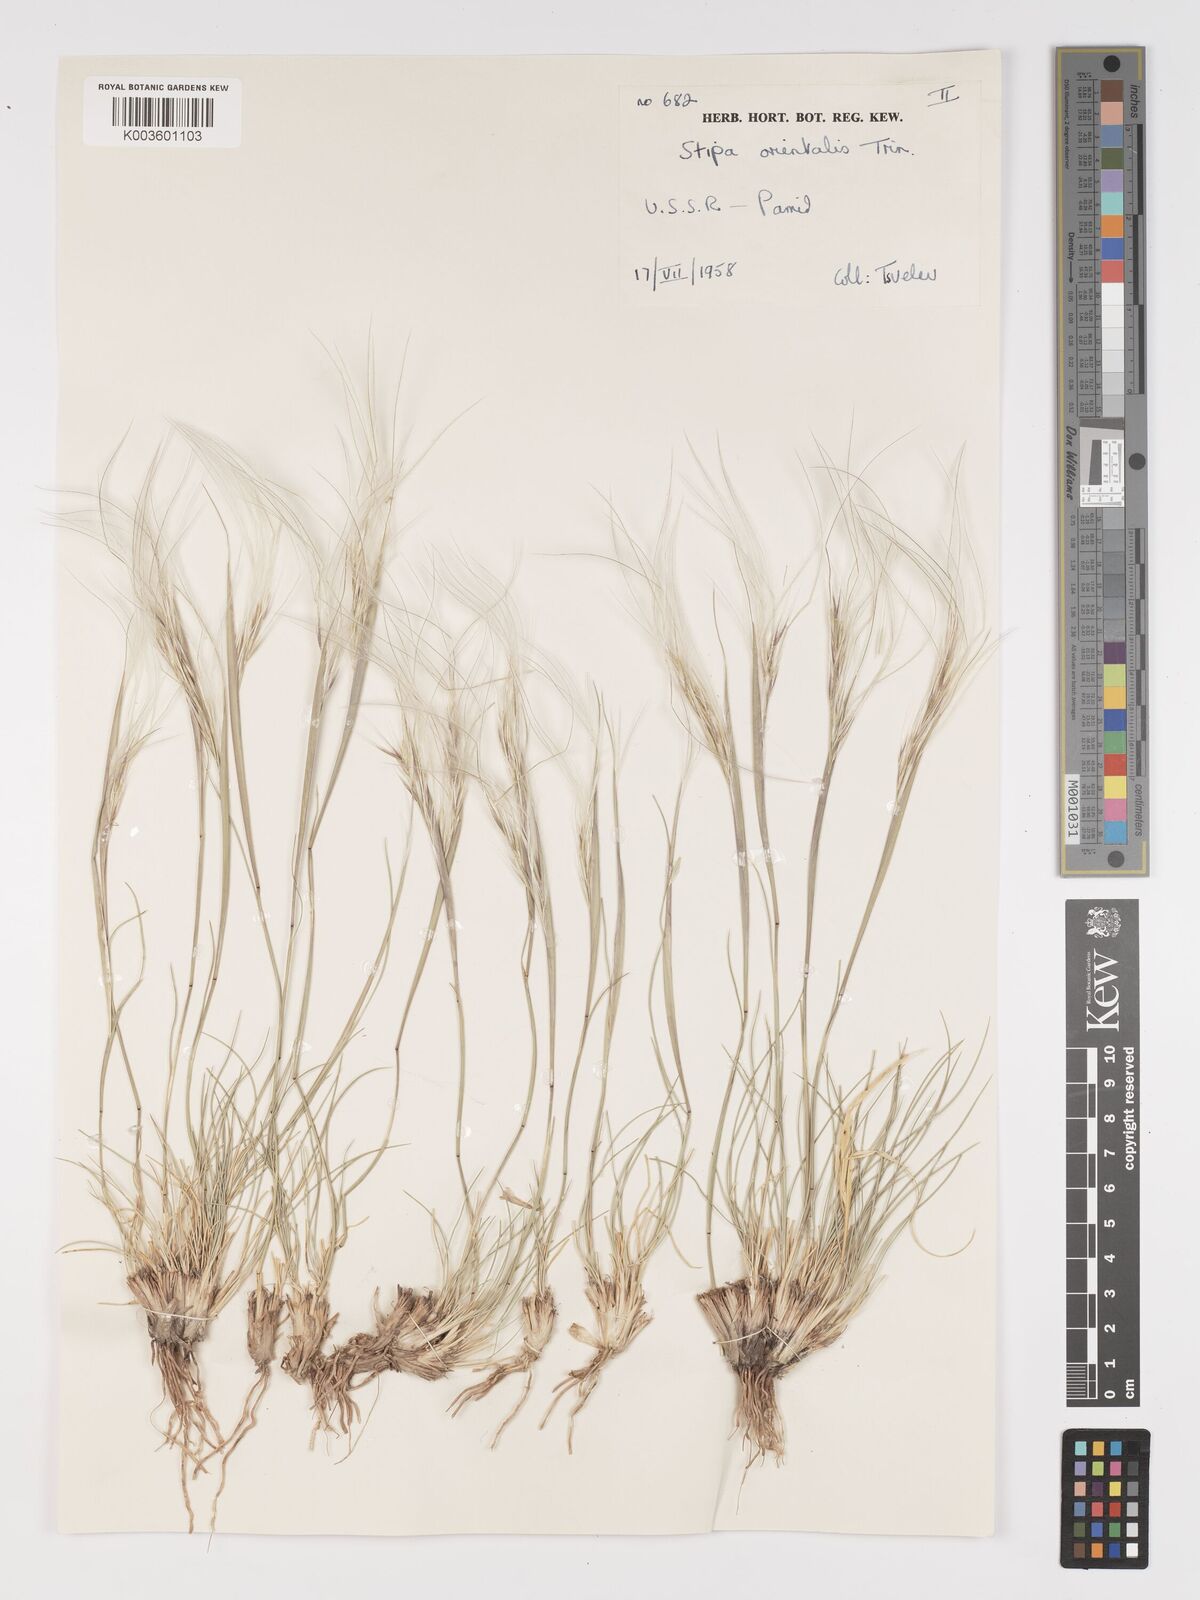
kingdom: Plantae
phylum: Tracheophyta
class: Liliopsida
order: Poales
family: Poaceae
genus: Stipa
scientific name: Stipa orientalis
